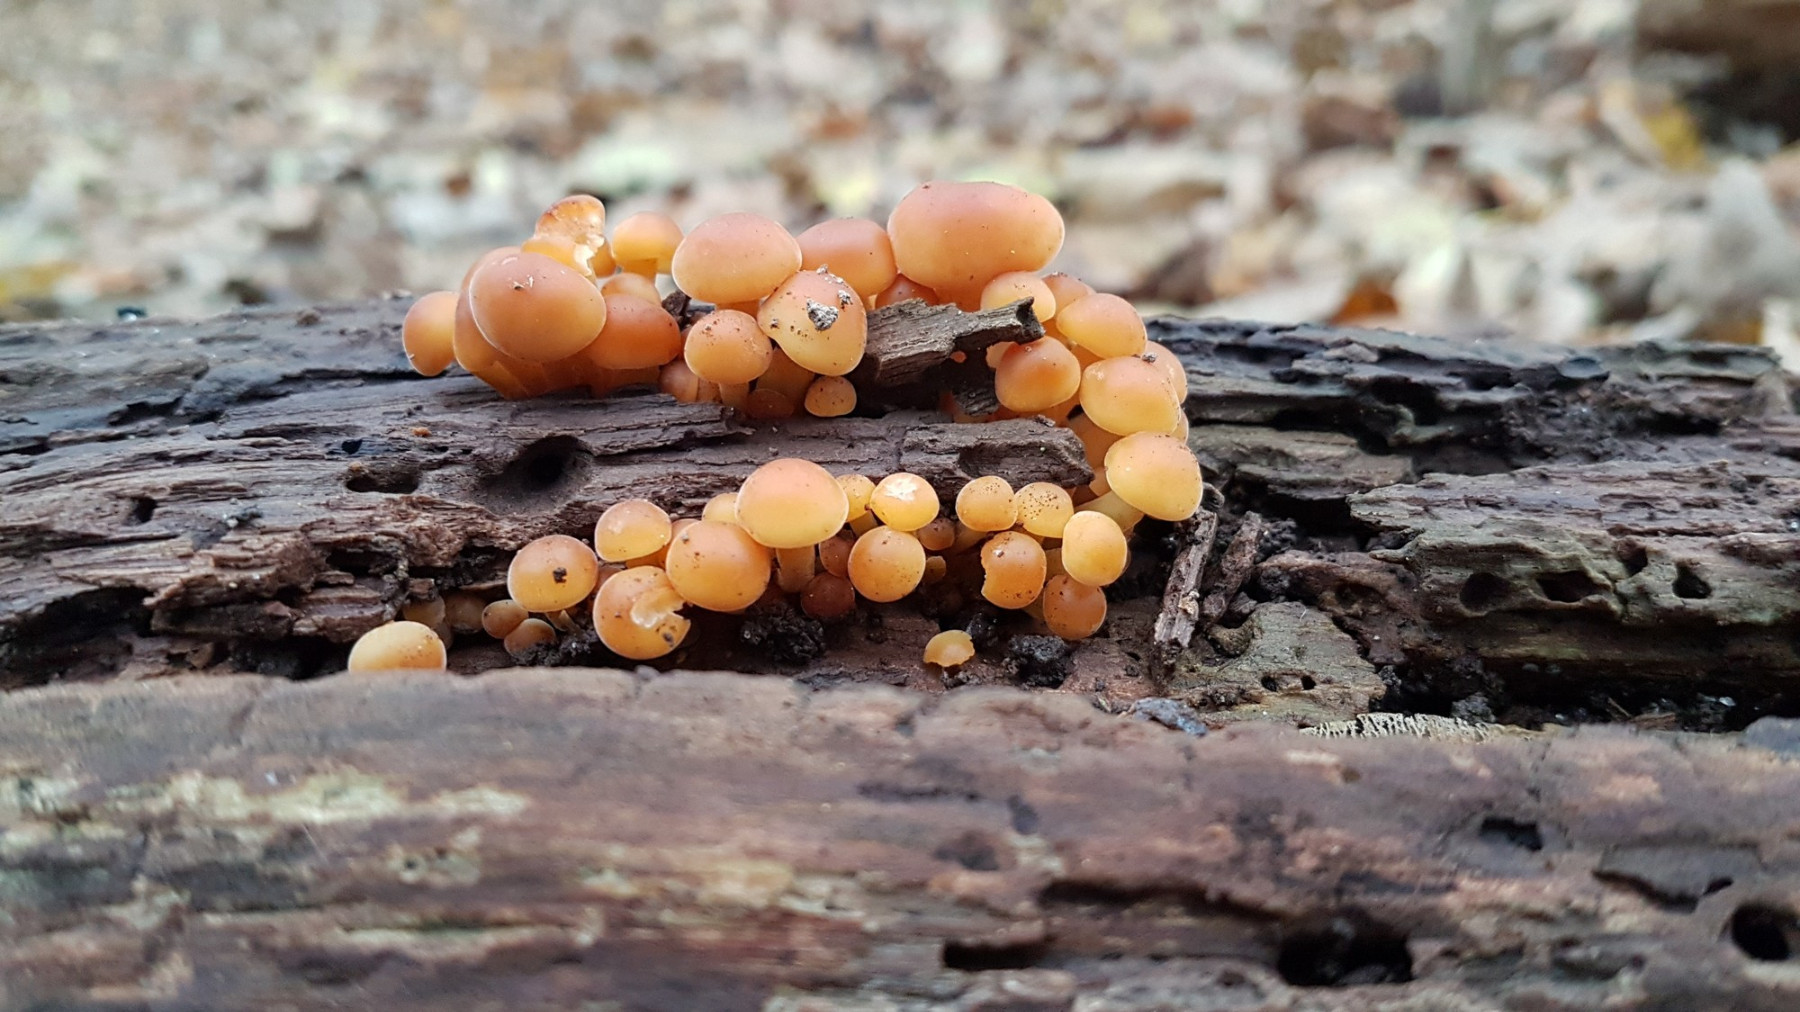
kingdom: Fungi
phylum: Basidiomycota
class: Agaricomycetes
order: Agaricales
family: Physalacriaceae
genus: Flammulina
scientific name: Flammulina velutipes
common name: gul fløjlsfod
